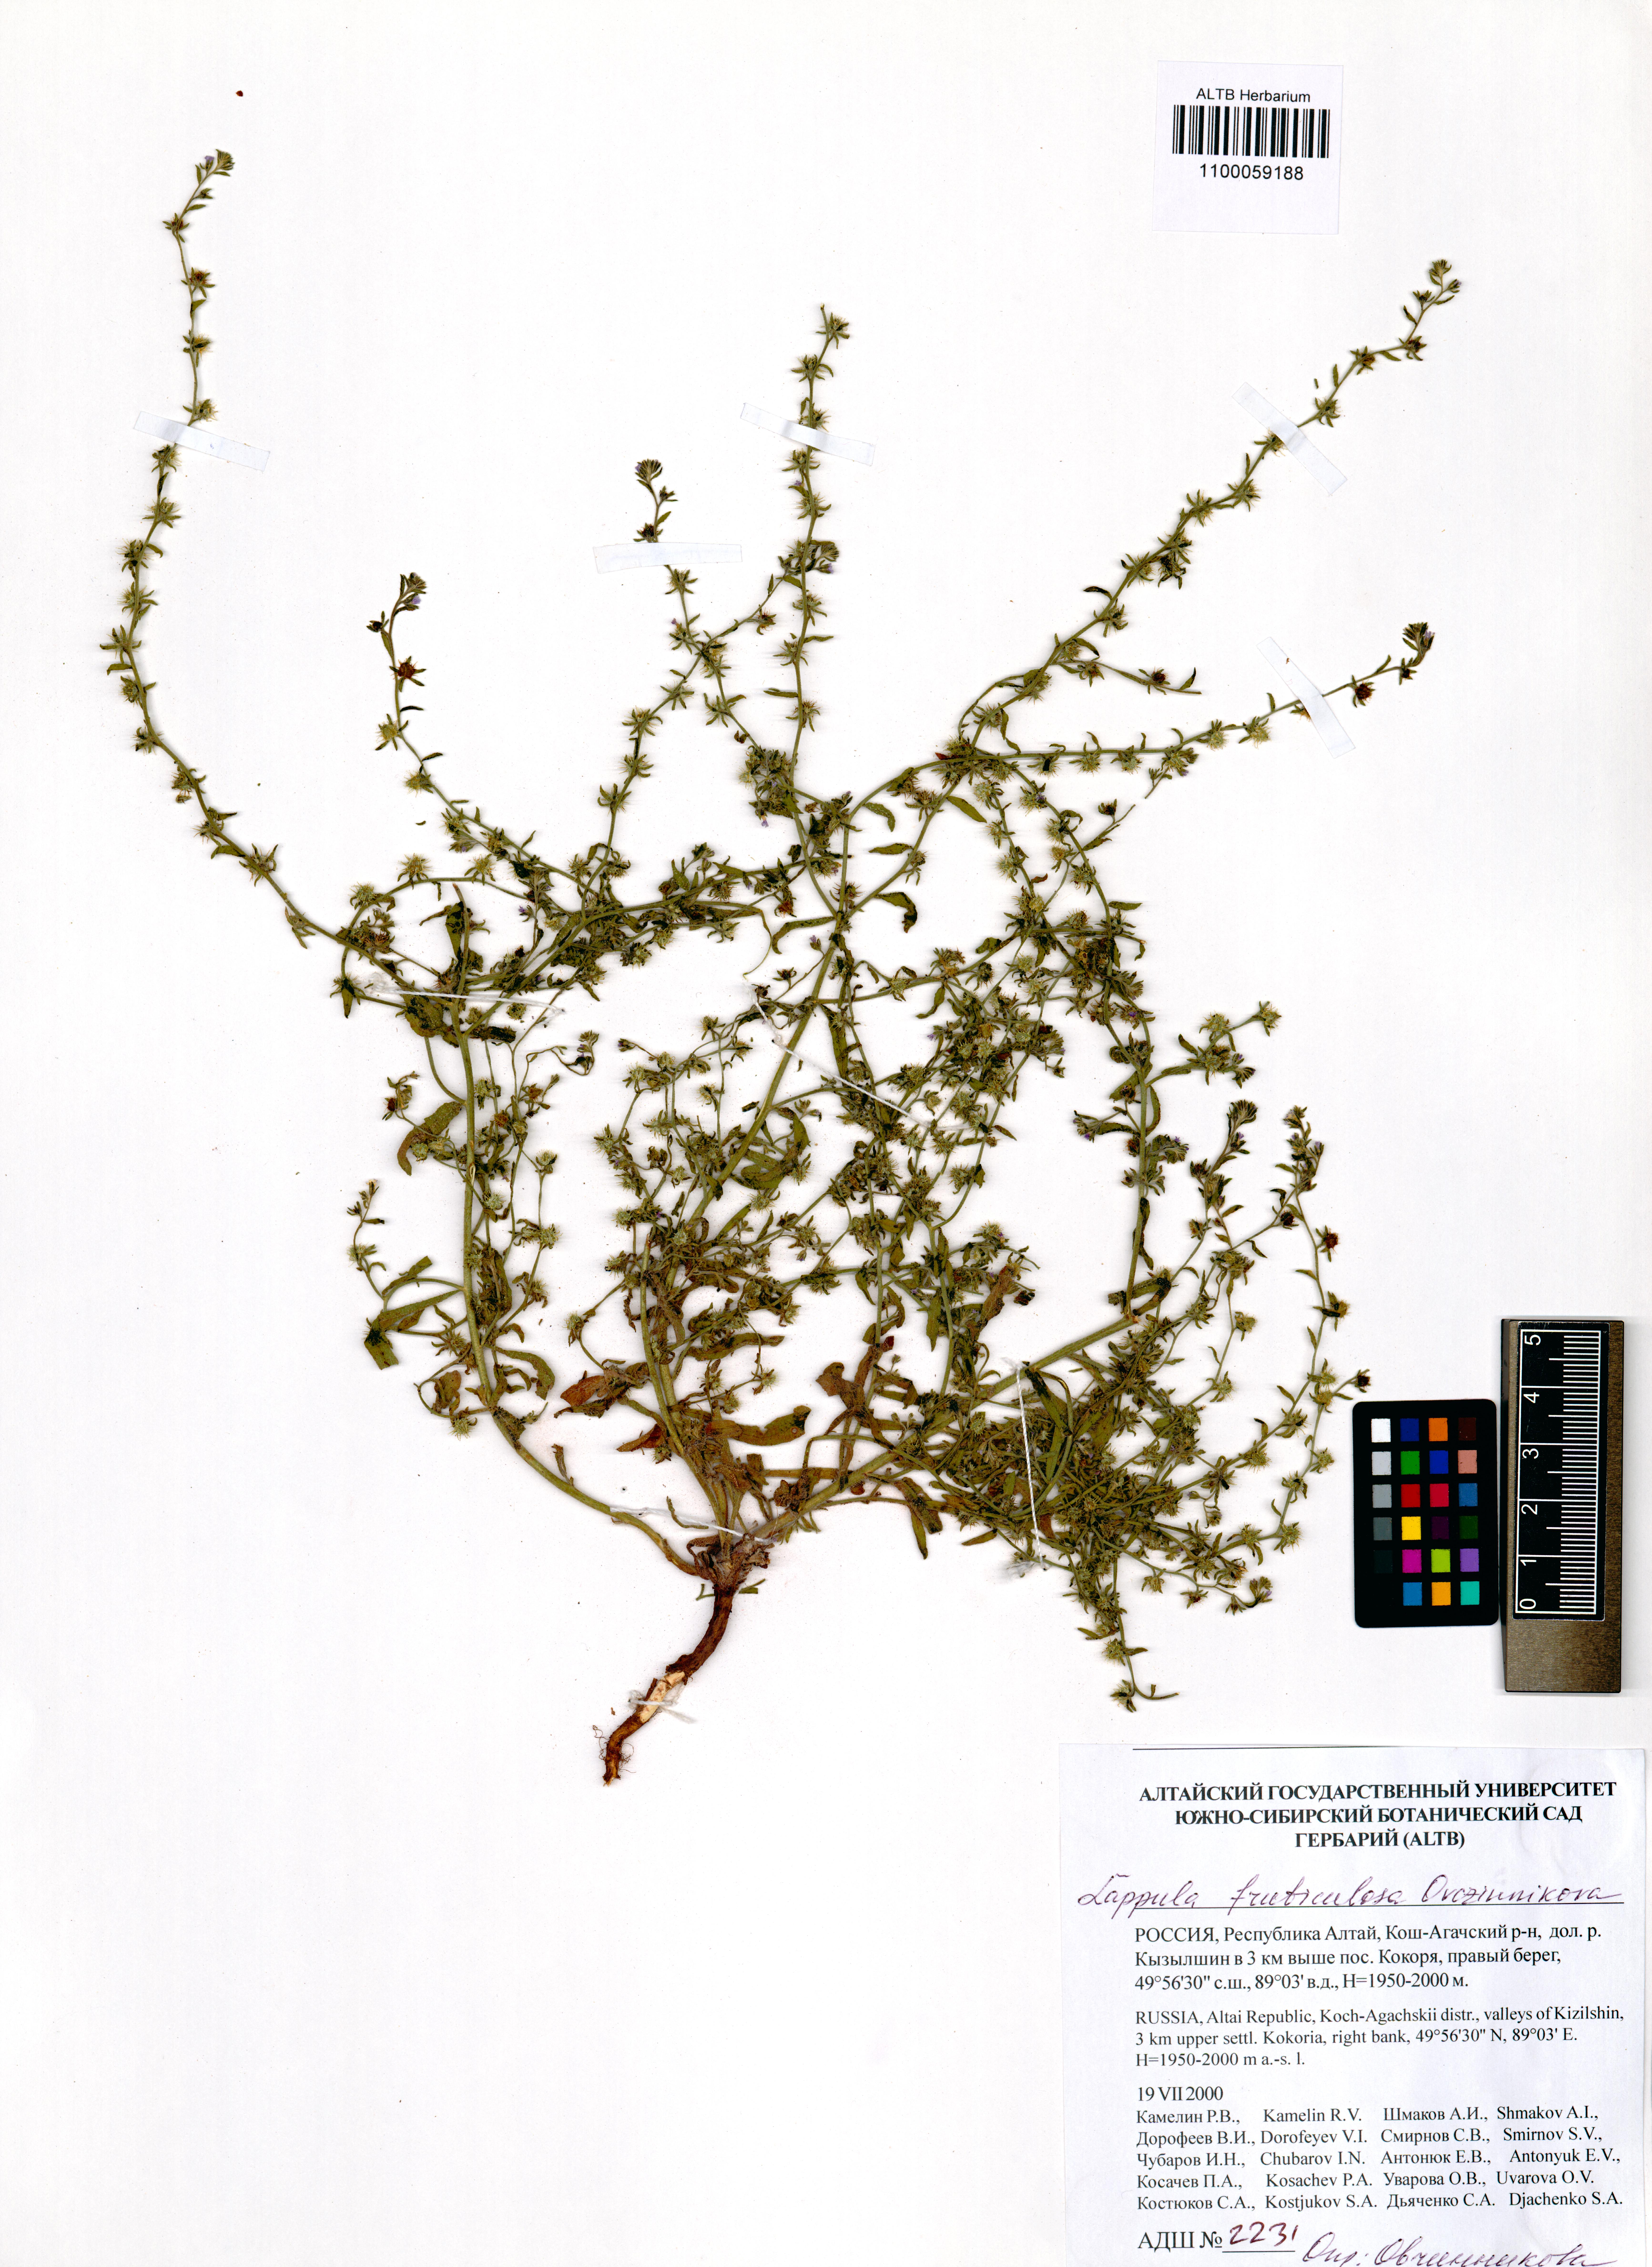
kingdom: Plantae
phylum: Tracheophyta
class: Magnoliopsida
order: Boraginales
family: Boraginaceae
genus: Lappula
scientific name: Lappula fruticulosa
